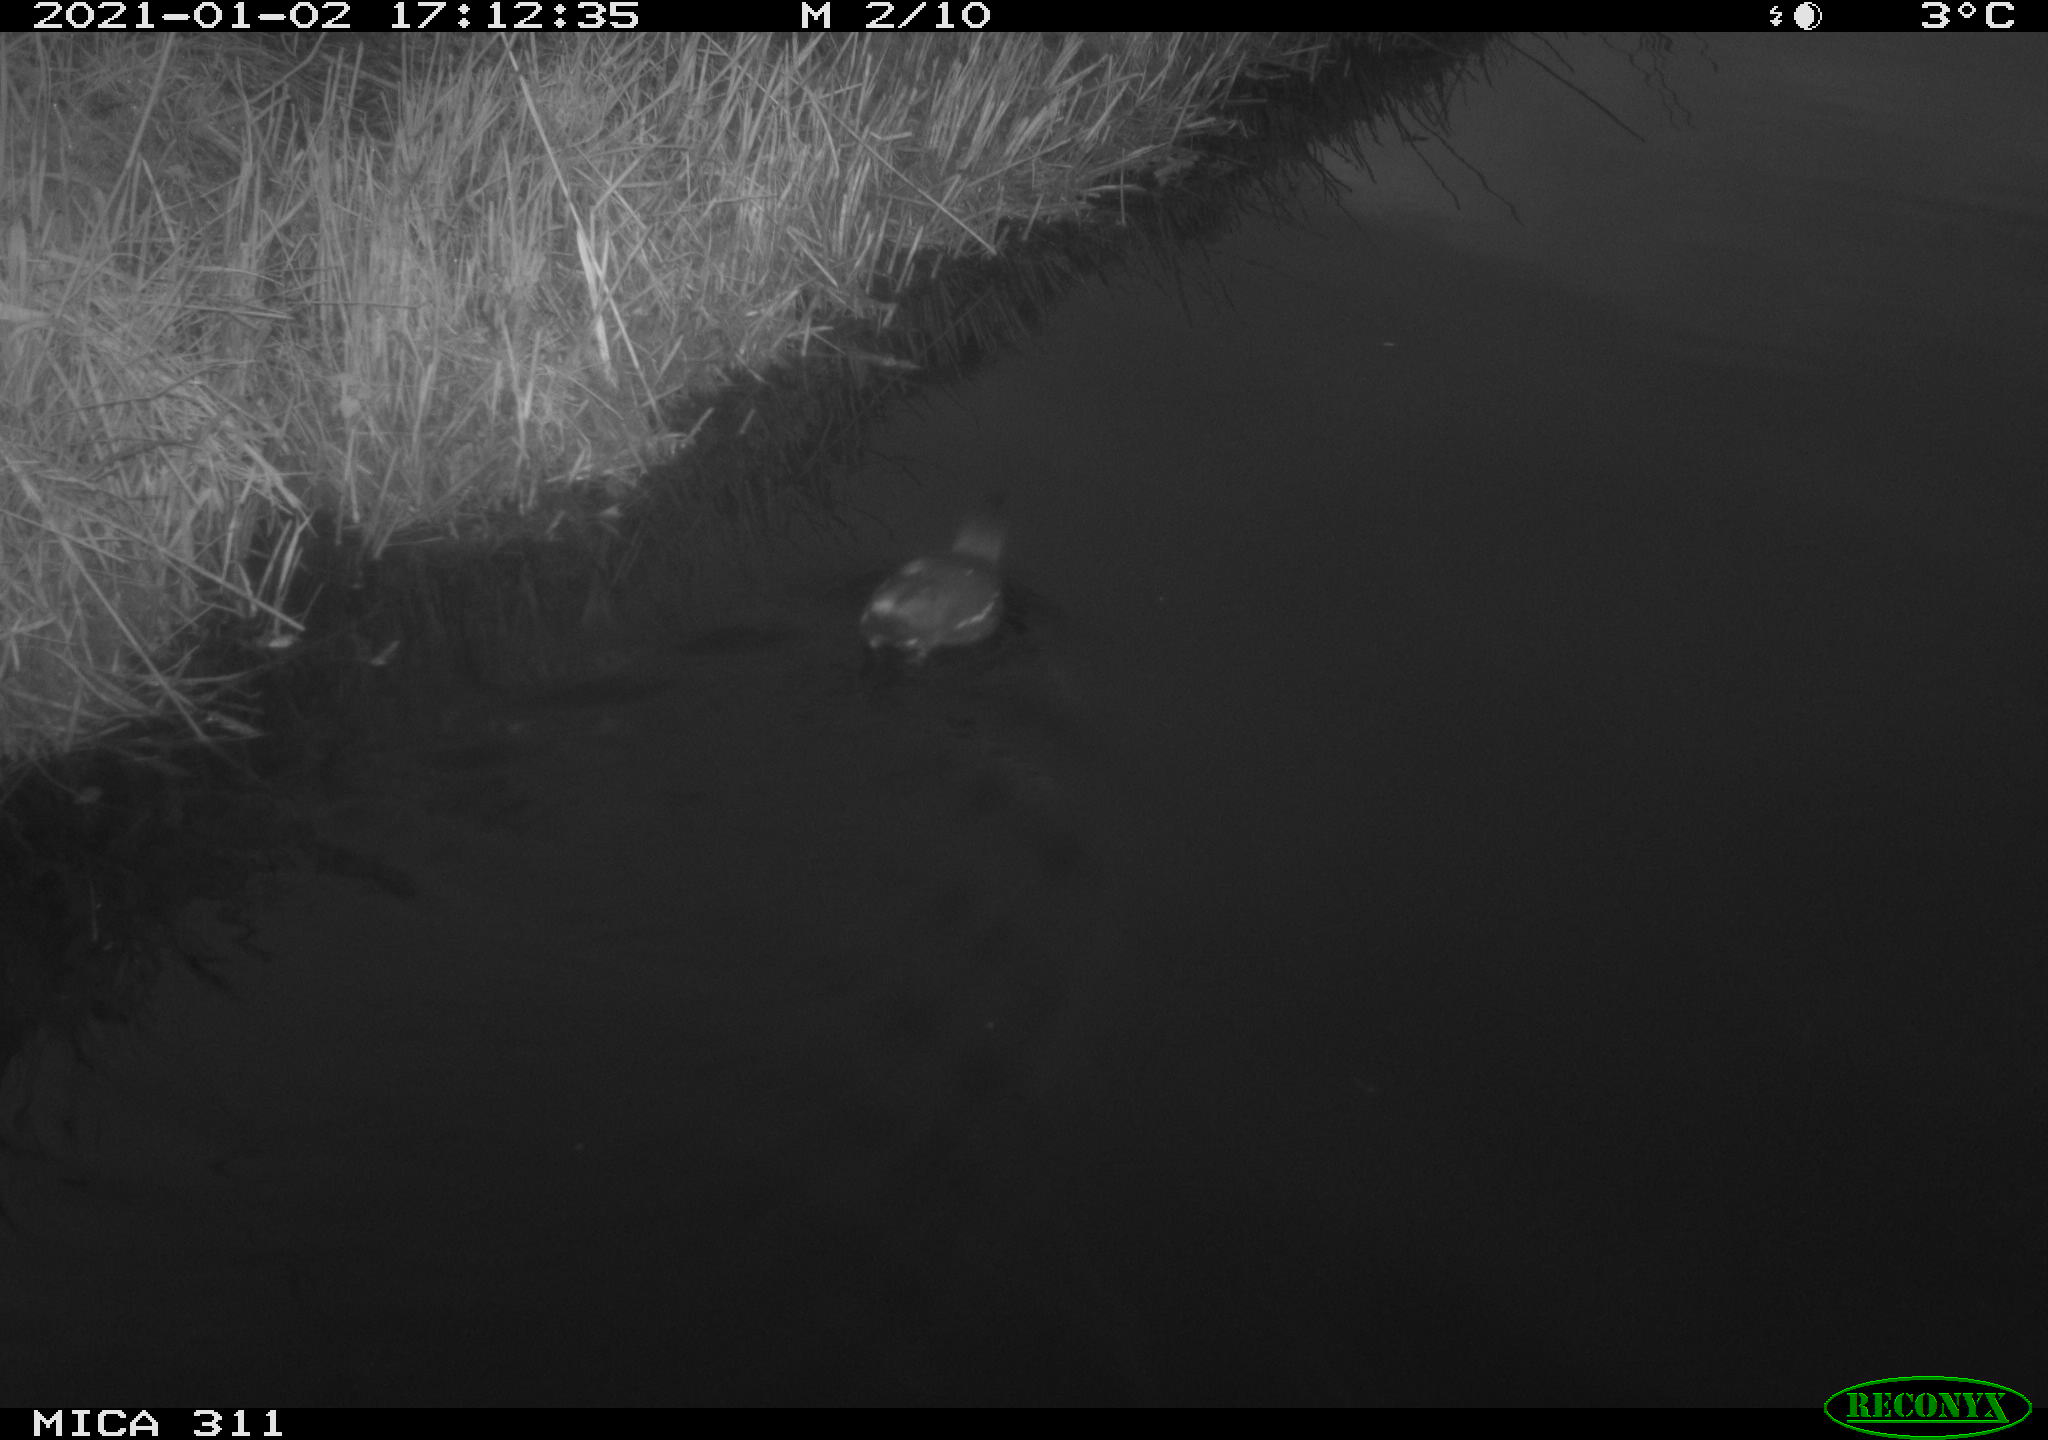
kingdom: Animalia
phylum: Chordata
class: Aves
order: Gruiformes
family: Rallidae
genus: Gallinula
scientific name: Gallinula chloropus
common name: Common moorhen
